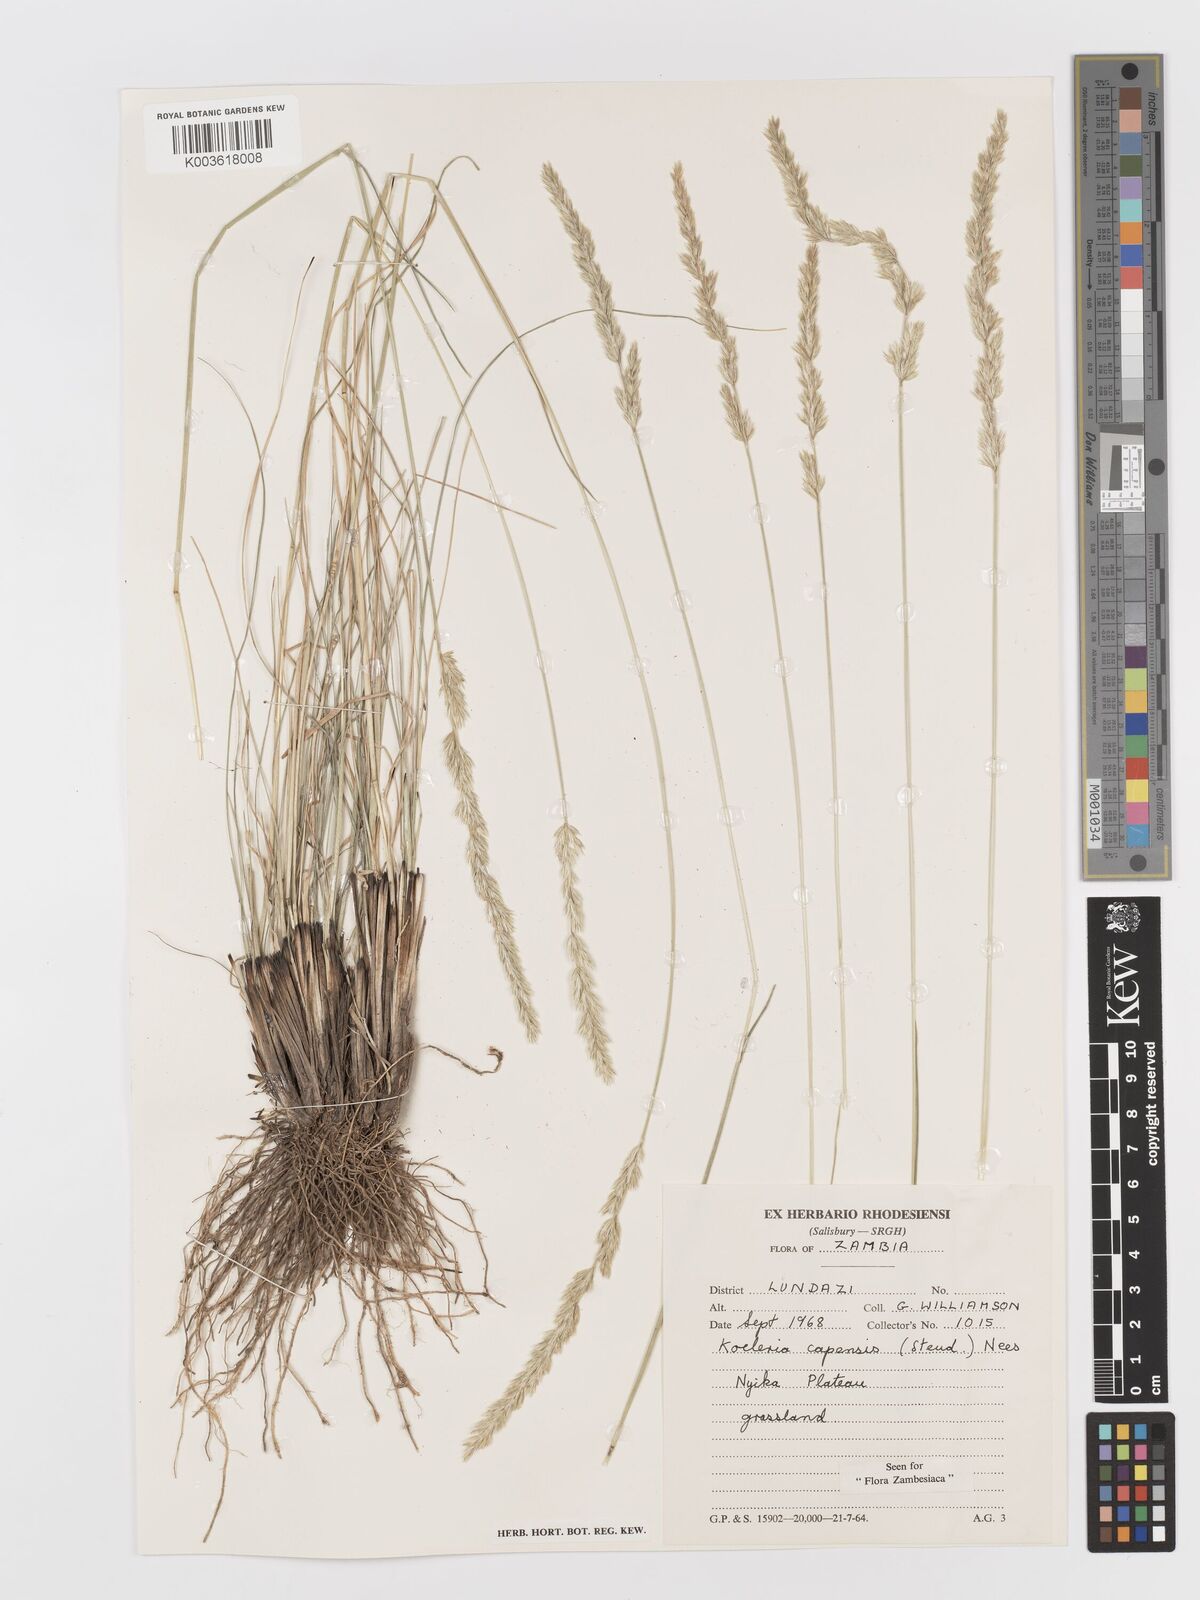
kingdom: Plantae
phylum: Tracheophyta
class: Liliopsida
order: Poales
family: Poaceae
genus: Koeleria
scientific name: Koeleria capensis
